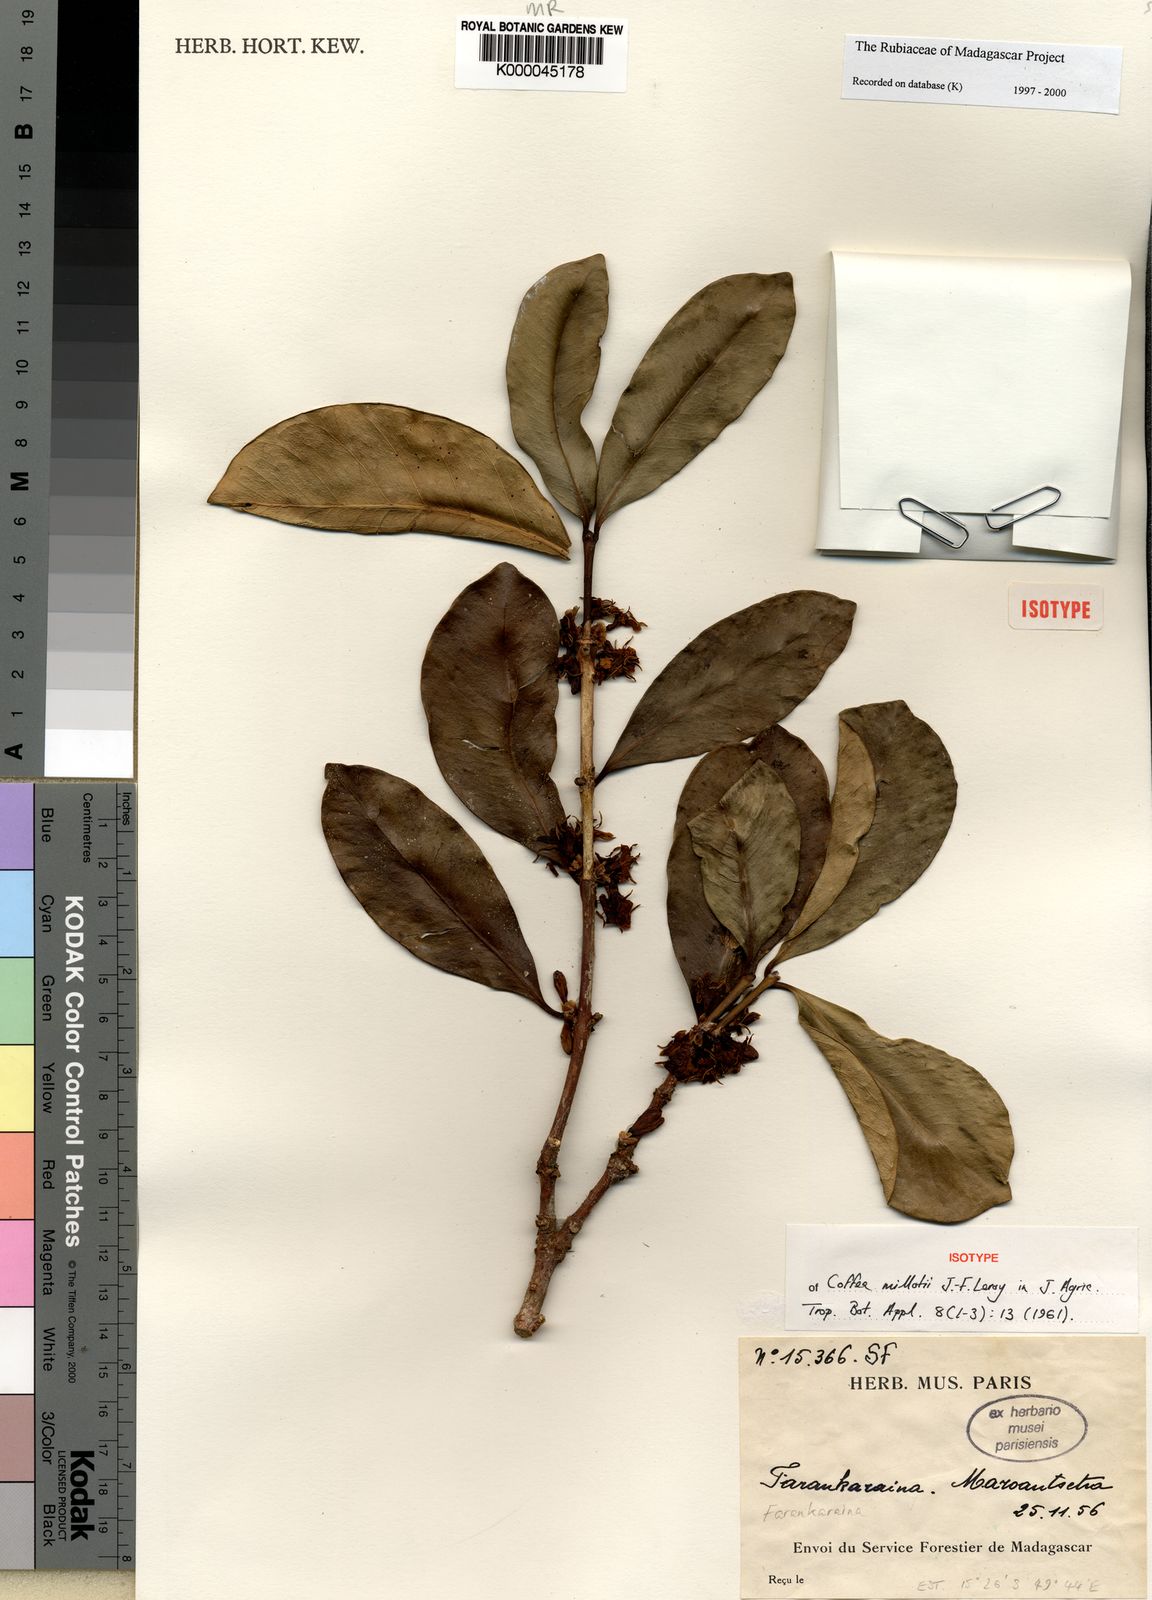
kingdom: Plantae
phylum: Tracheophyta
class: Magnoliopsida
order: Gentianales
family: Rubiaceae
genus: Coffea
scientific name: Coffea millotii
